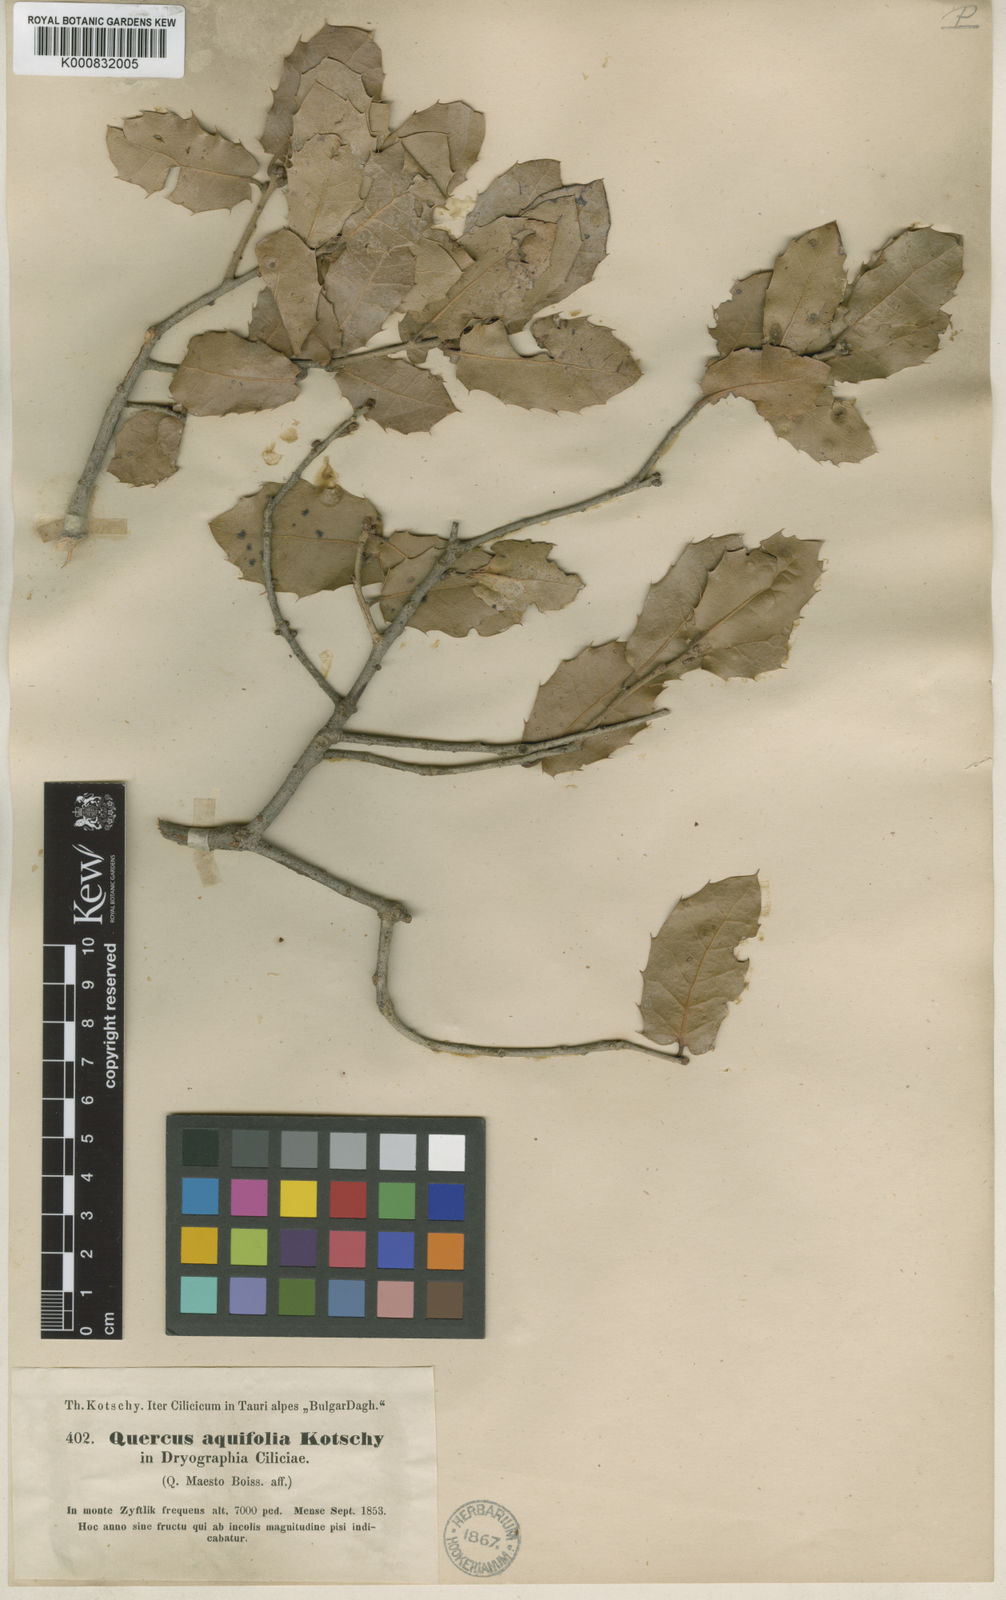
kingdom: Plantae
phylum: Tracheophyta
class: Magnoliopsida
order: Fagales
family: Fagaceae
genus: Quercus
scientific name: Quercus coccifera
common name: Kermes oak
